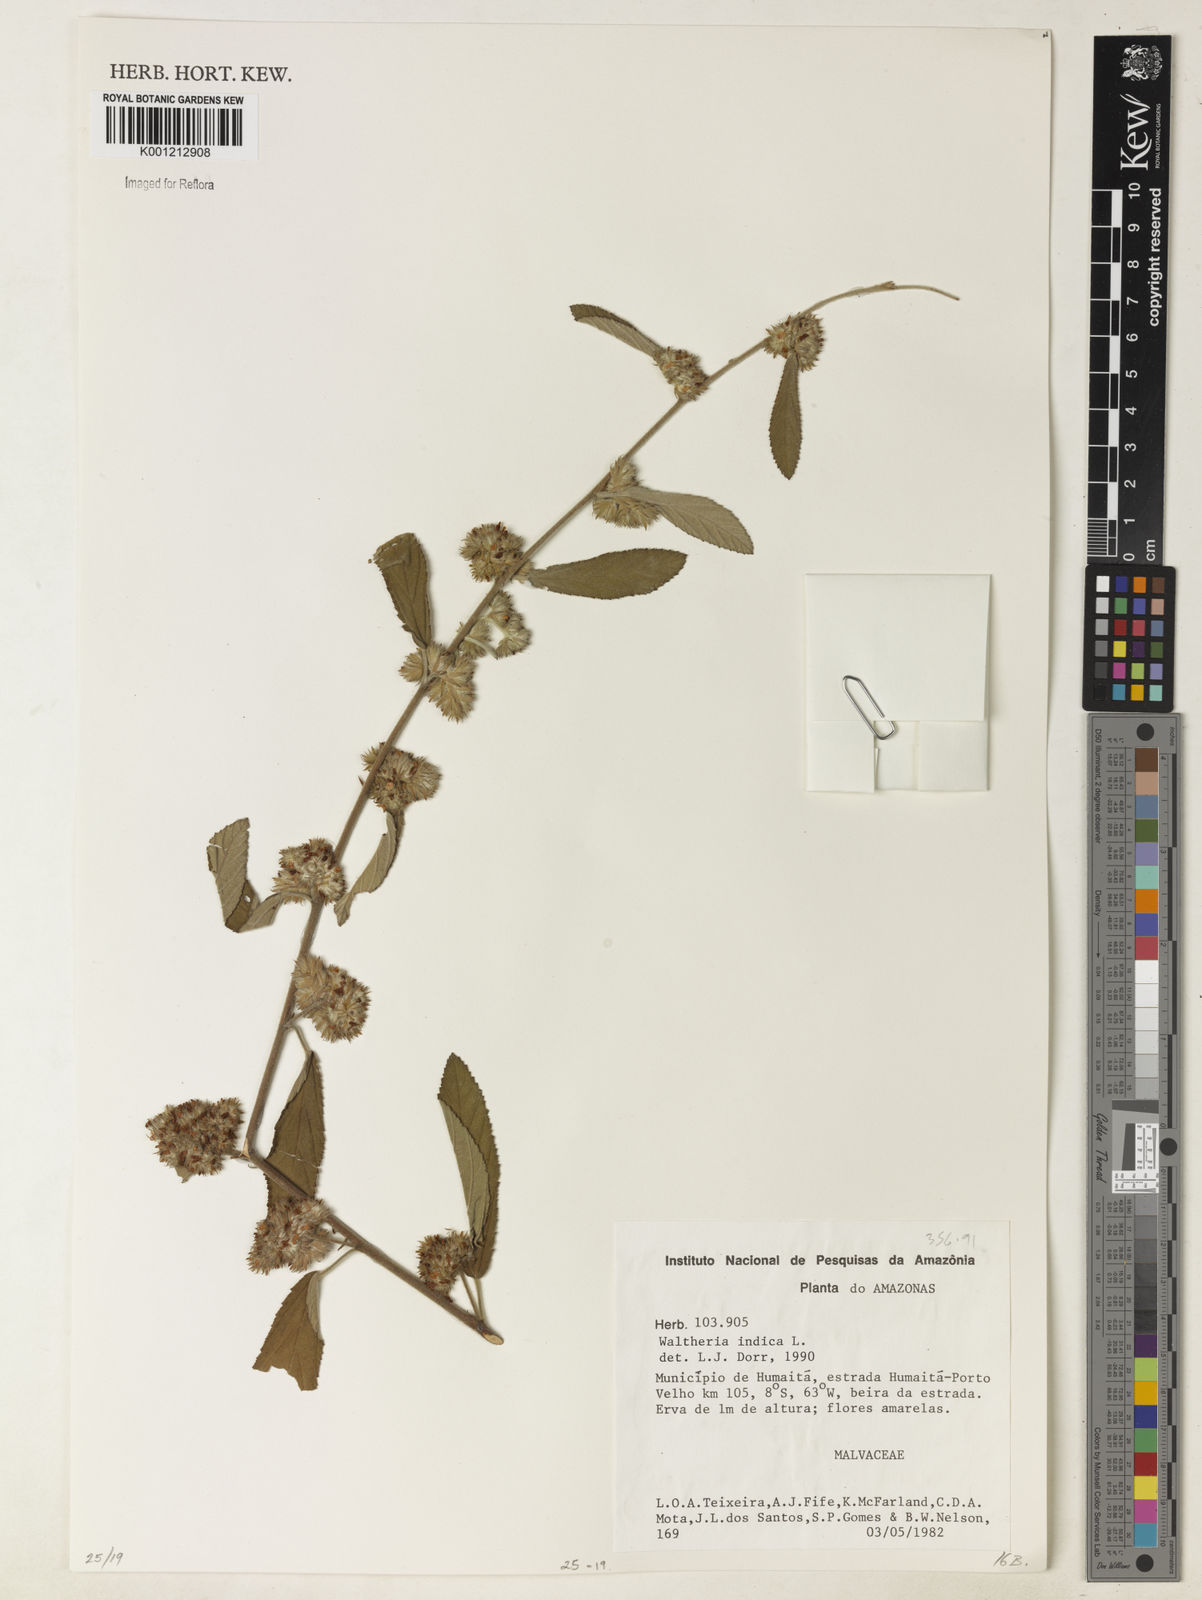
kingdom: Plantae
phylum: Tracheophyta
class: Magnoliopsida
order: Malvales
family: Malvaceae
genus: Waltheria
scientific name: Waltheria indica
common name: Leather-coat
